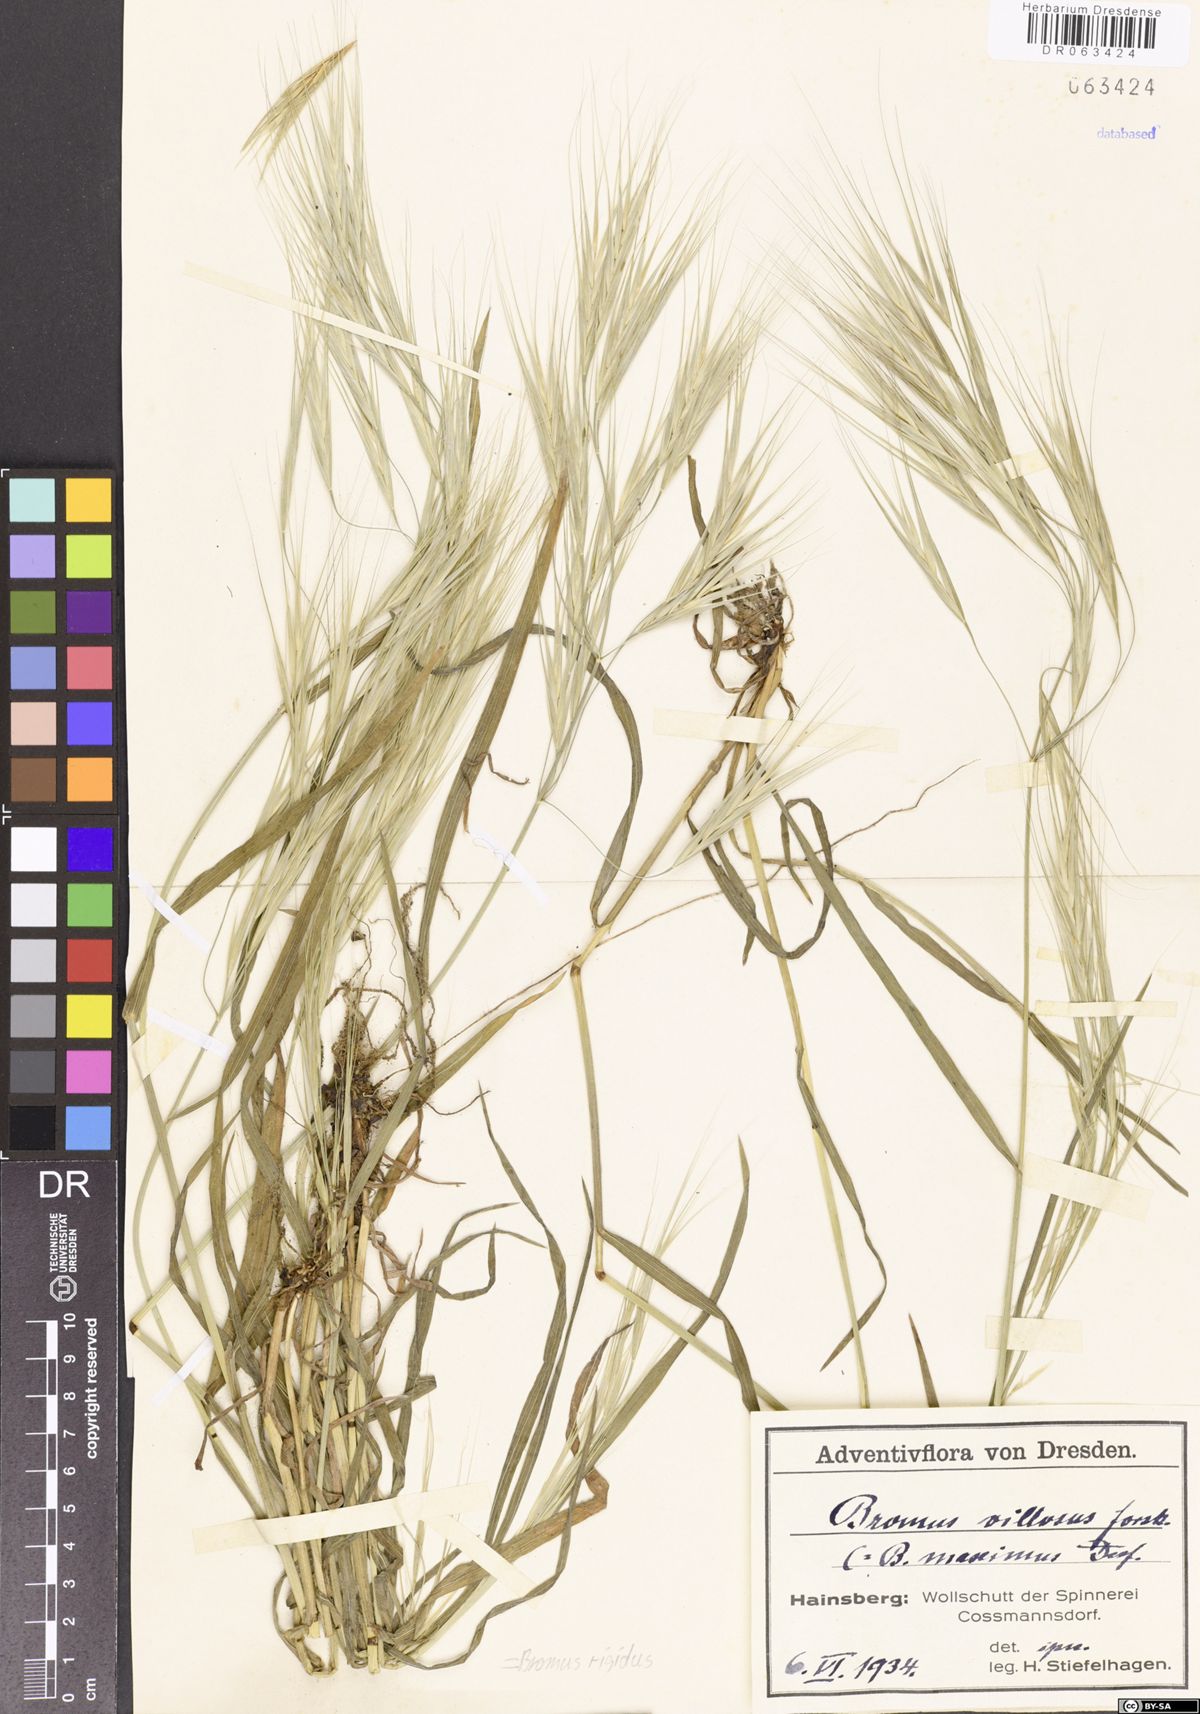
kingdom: Plantae
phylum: Tracheophyta
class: Liliopsida
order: Poales
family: Poaceae
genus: Bromus
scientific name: Bromus rigidus
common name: Ripgut brome
